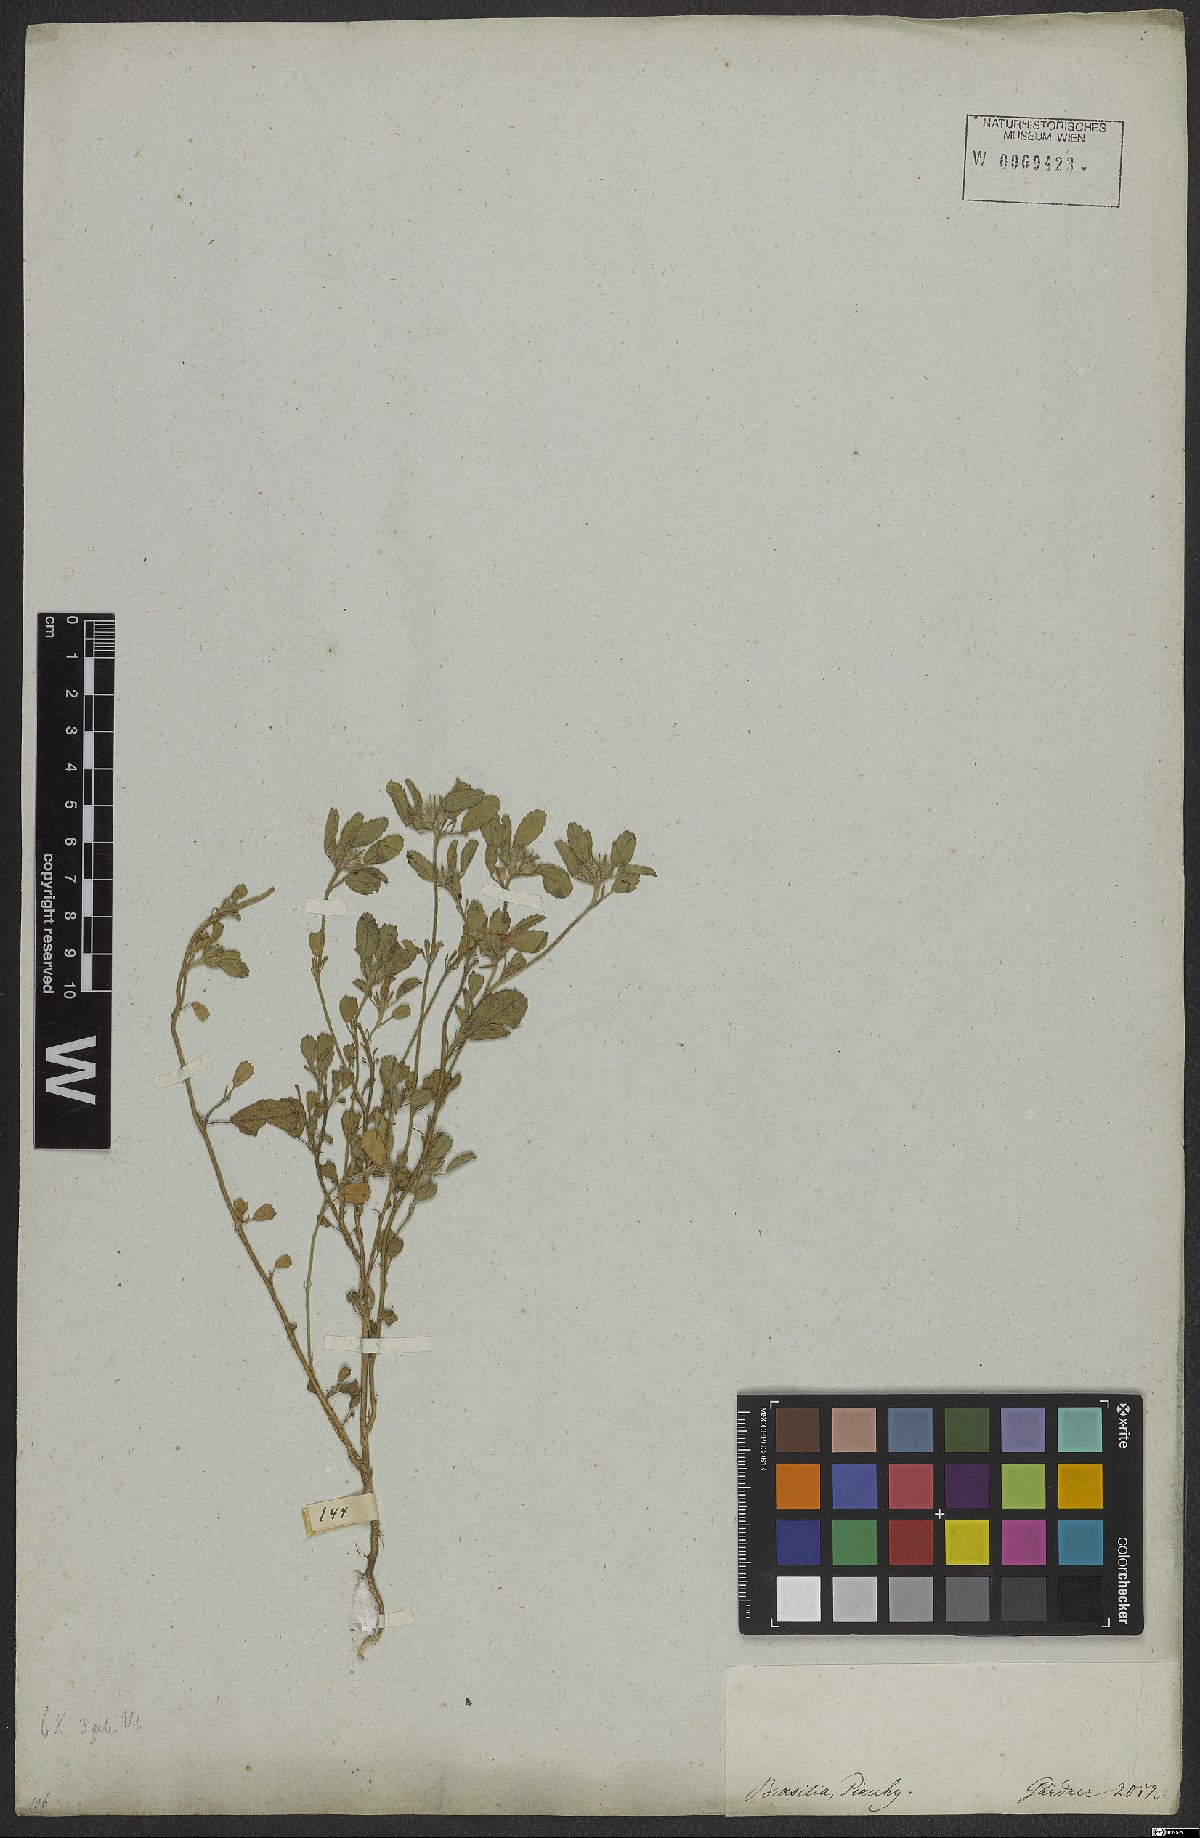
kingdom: Plantae
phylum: Tracheophyta
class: Magnoliopsida
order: Malvales
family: Malvaceae
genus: Sida
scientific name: Sida ciliaris
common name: Bracted fanpetals
